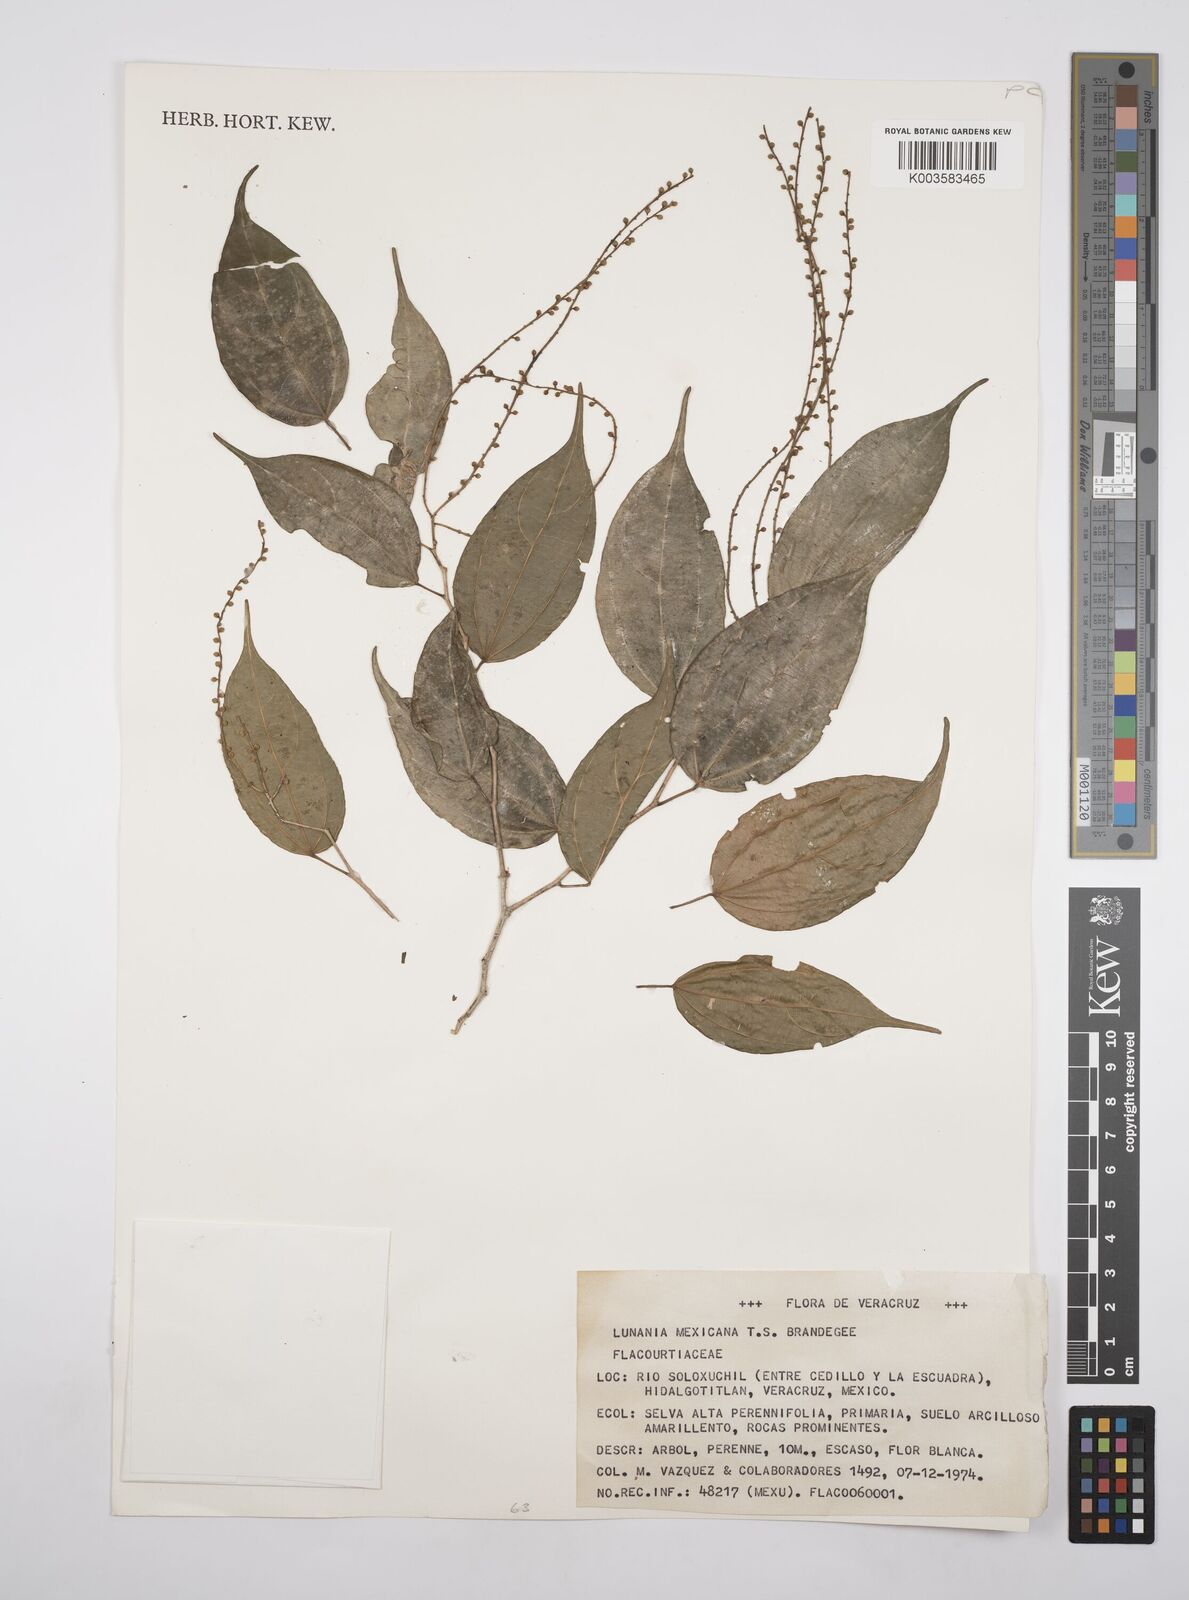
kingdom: Plantae
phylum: Tracheophyta
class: Magnoliopsida
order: Malpighiales
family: Salicaceae
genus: Lunania
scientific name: Lunania mexicana
